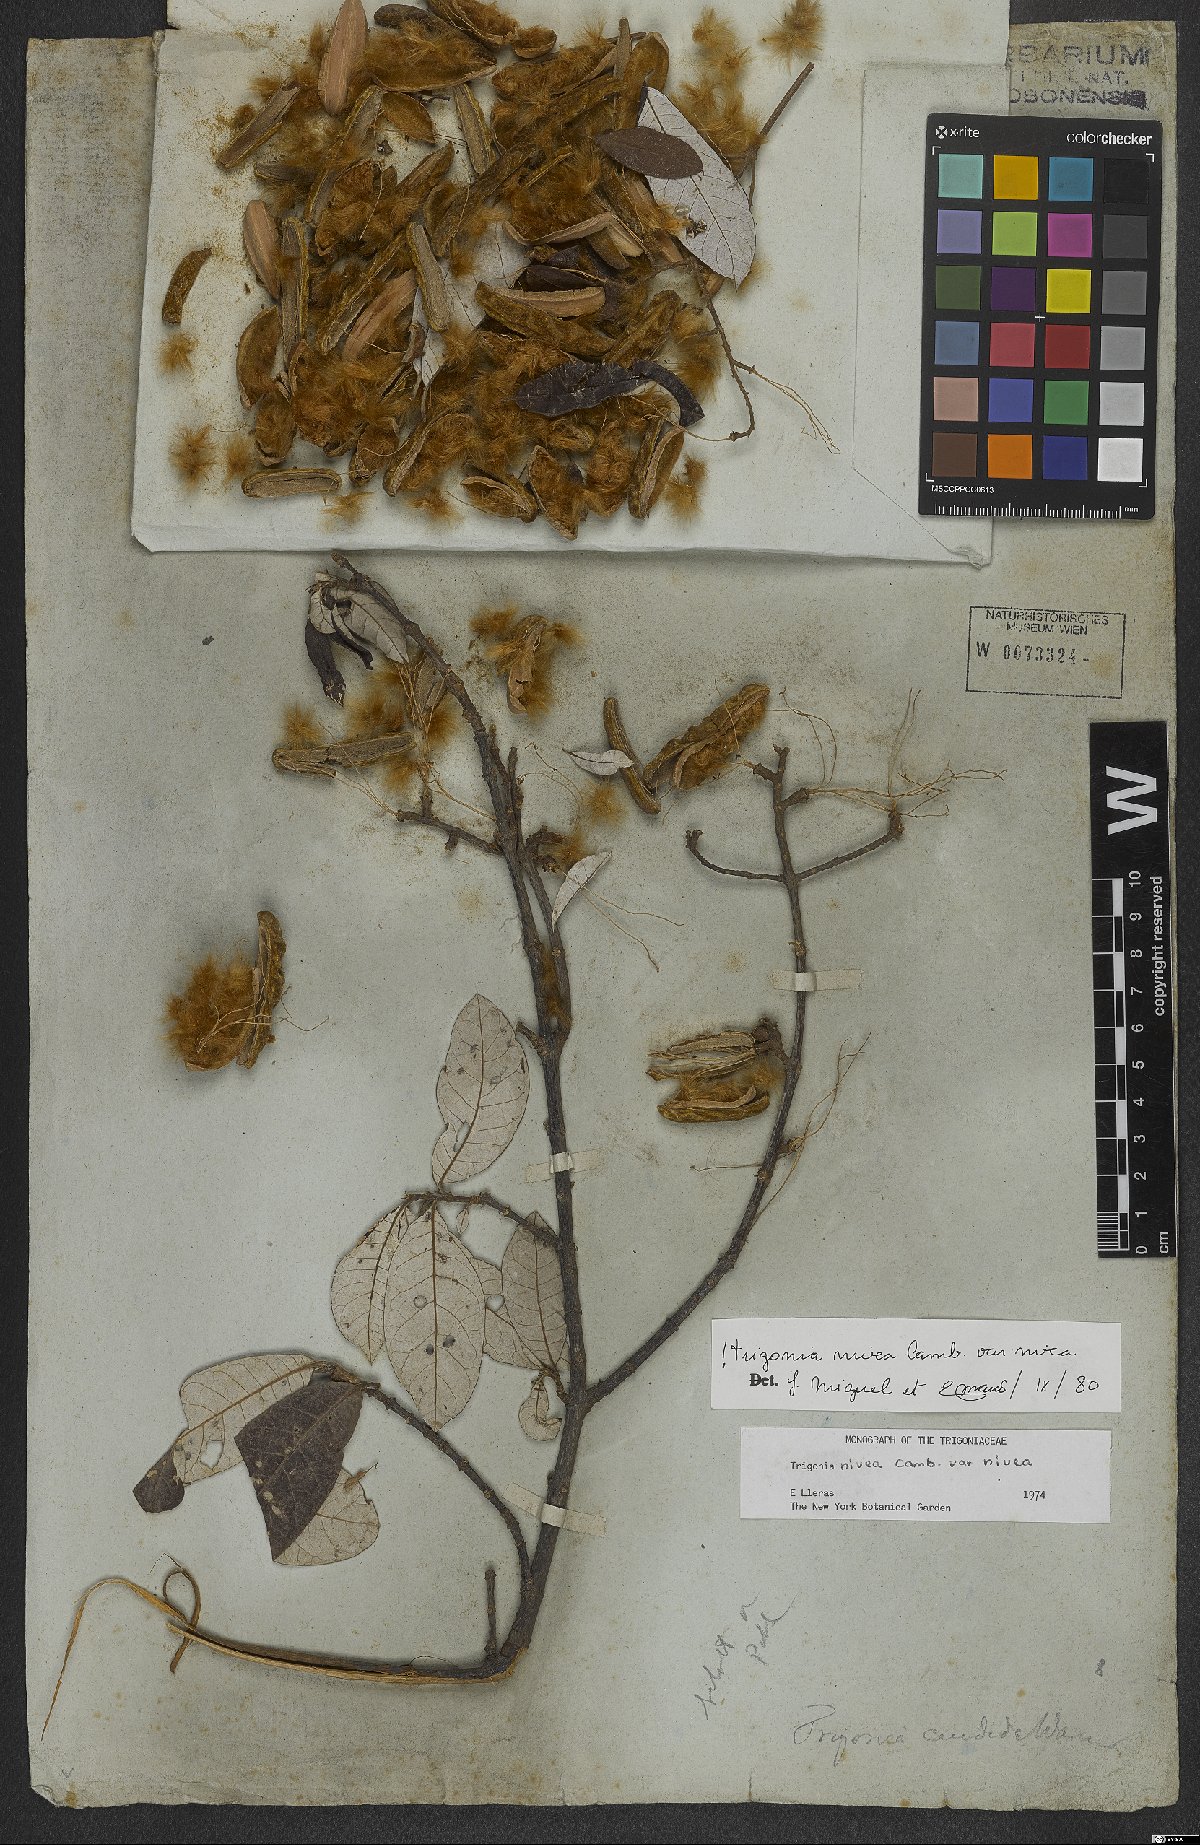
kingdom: Plantae
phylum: Tracheophyta
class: Magnoliopsida
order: Malpighiales
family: Trigoniaceae
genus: Trigonia
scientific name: Trigonia nivea
